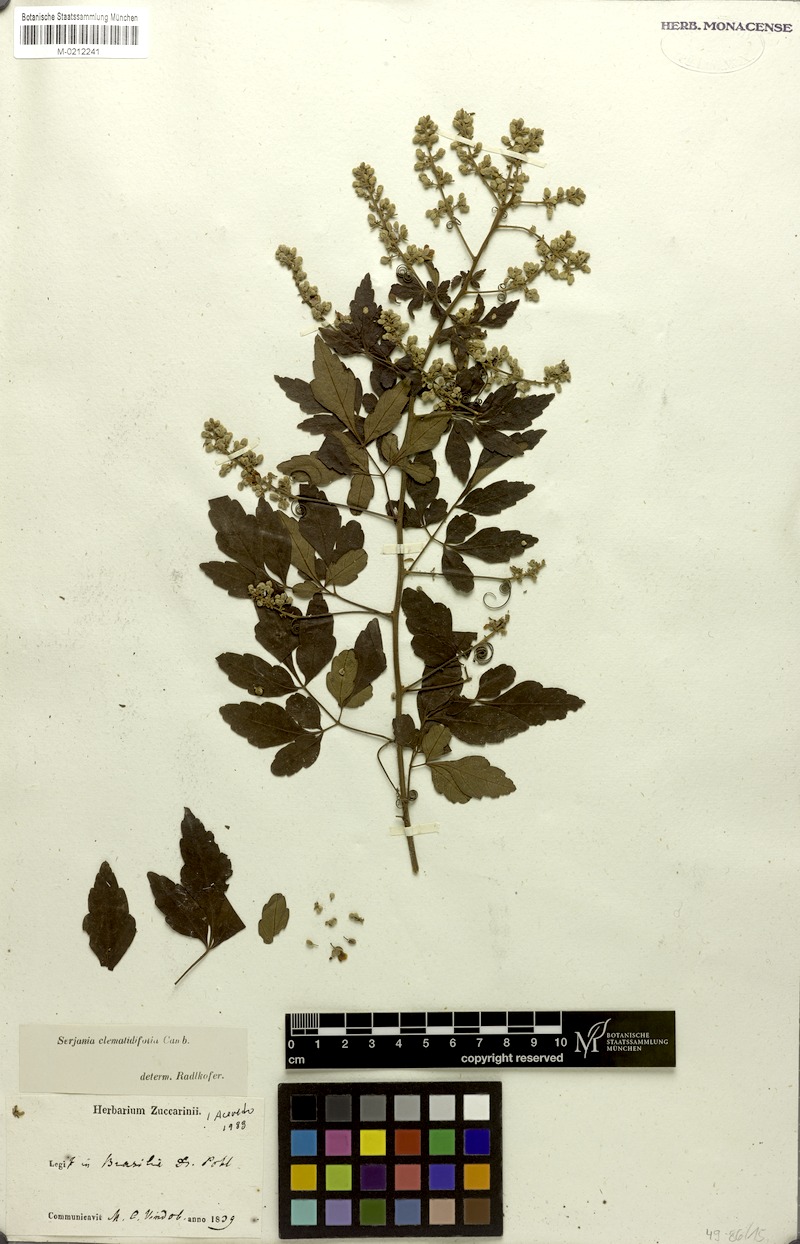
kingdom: Plantae
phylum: Tracheophyta
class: Magnoliopsida
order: Sapindales
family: Sapindaceae
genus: Serjania
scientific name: Serjania clematidifolia
